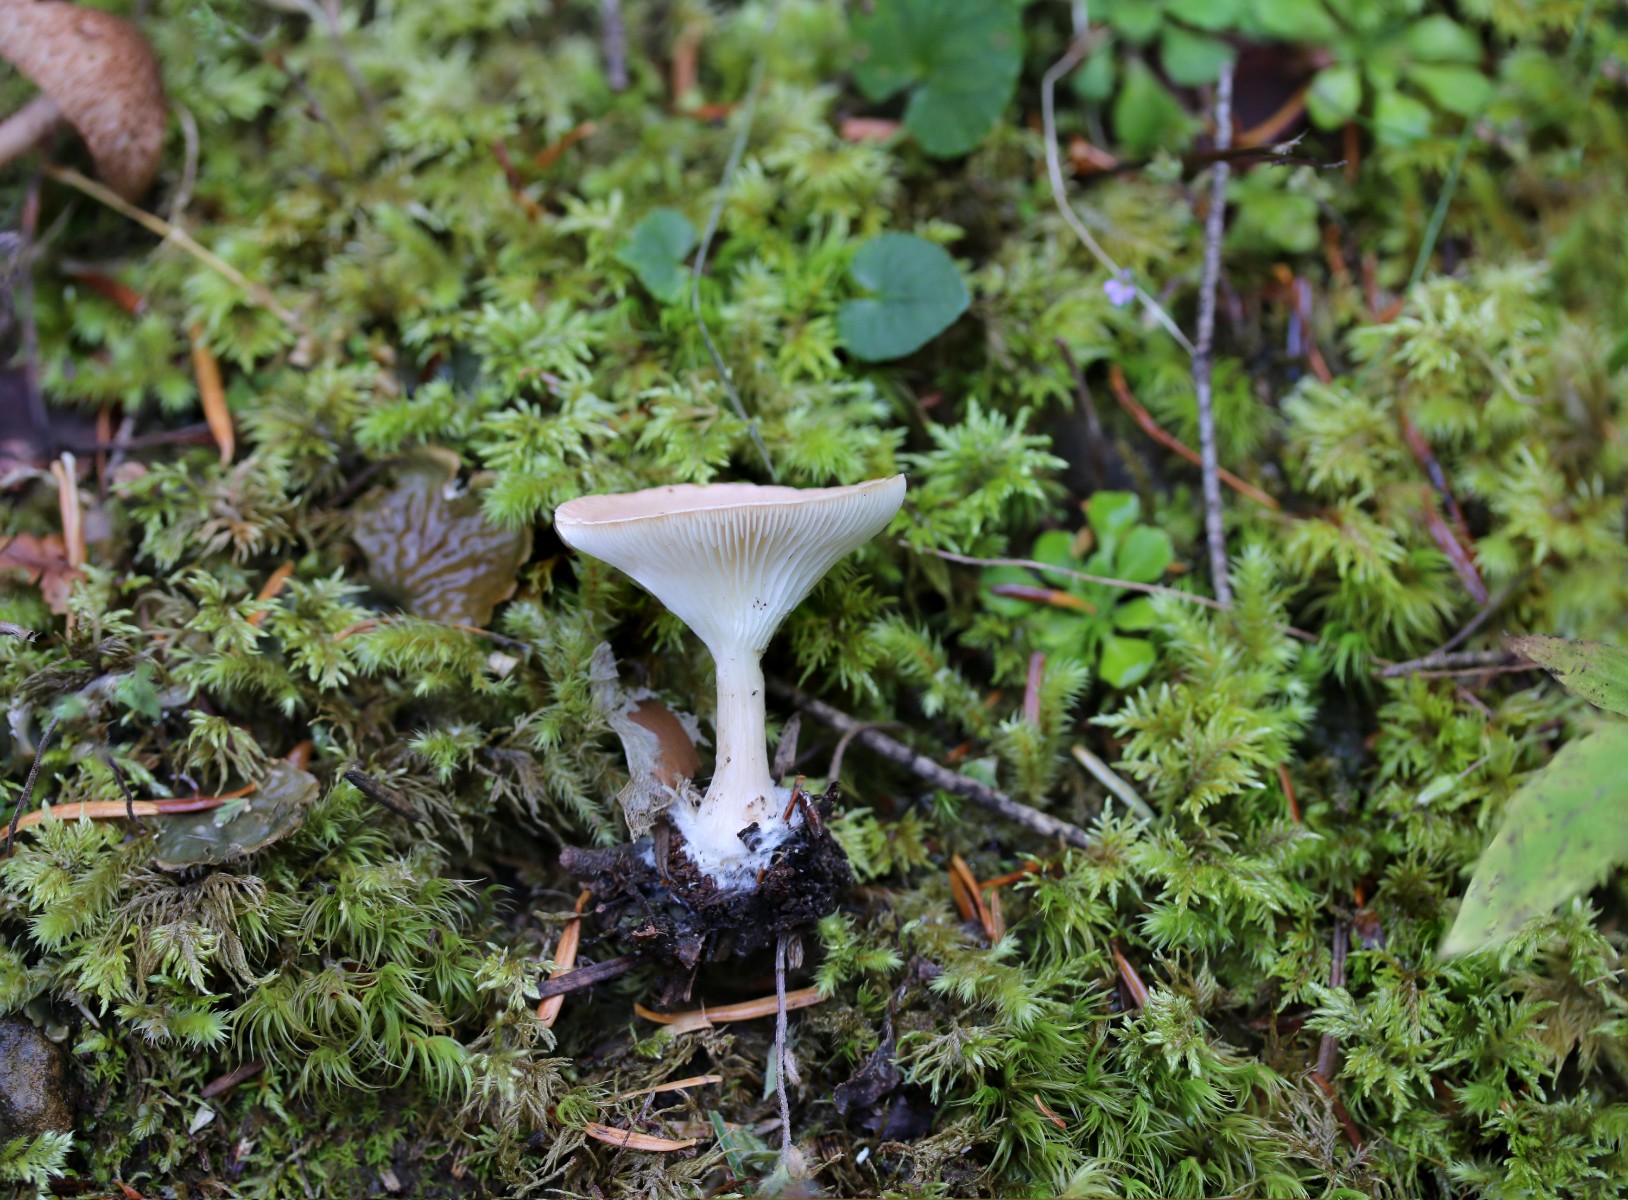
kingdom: Fungi
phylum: Basidiomycota
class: Agaricomycetes
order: Agaricales
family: Tricholomataceae
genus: Infundibulicybe
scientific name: Infundibulicybe gibba
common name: almindelig tragthat
